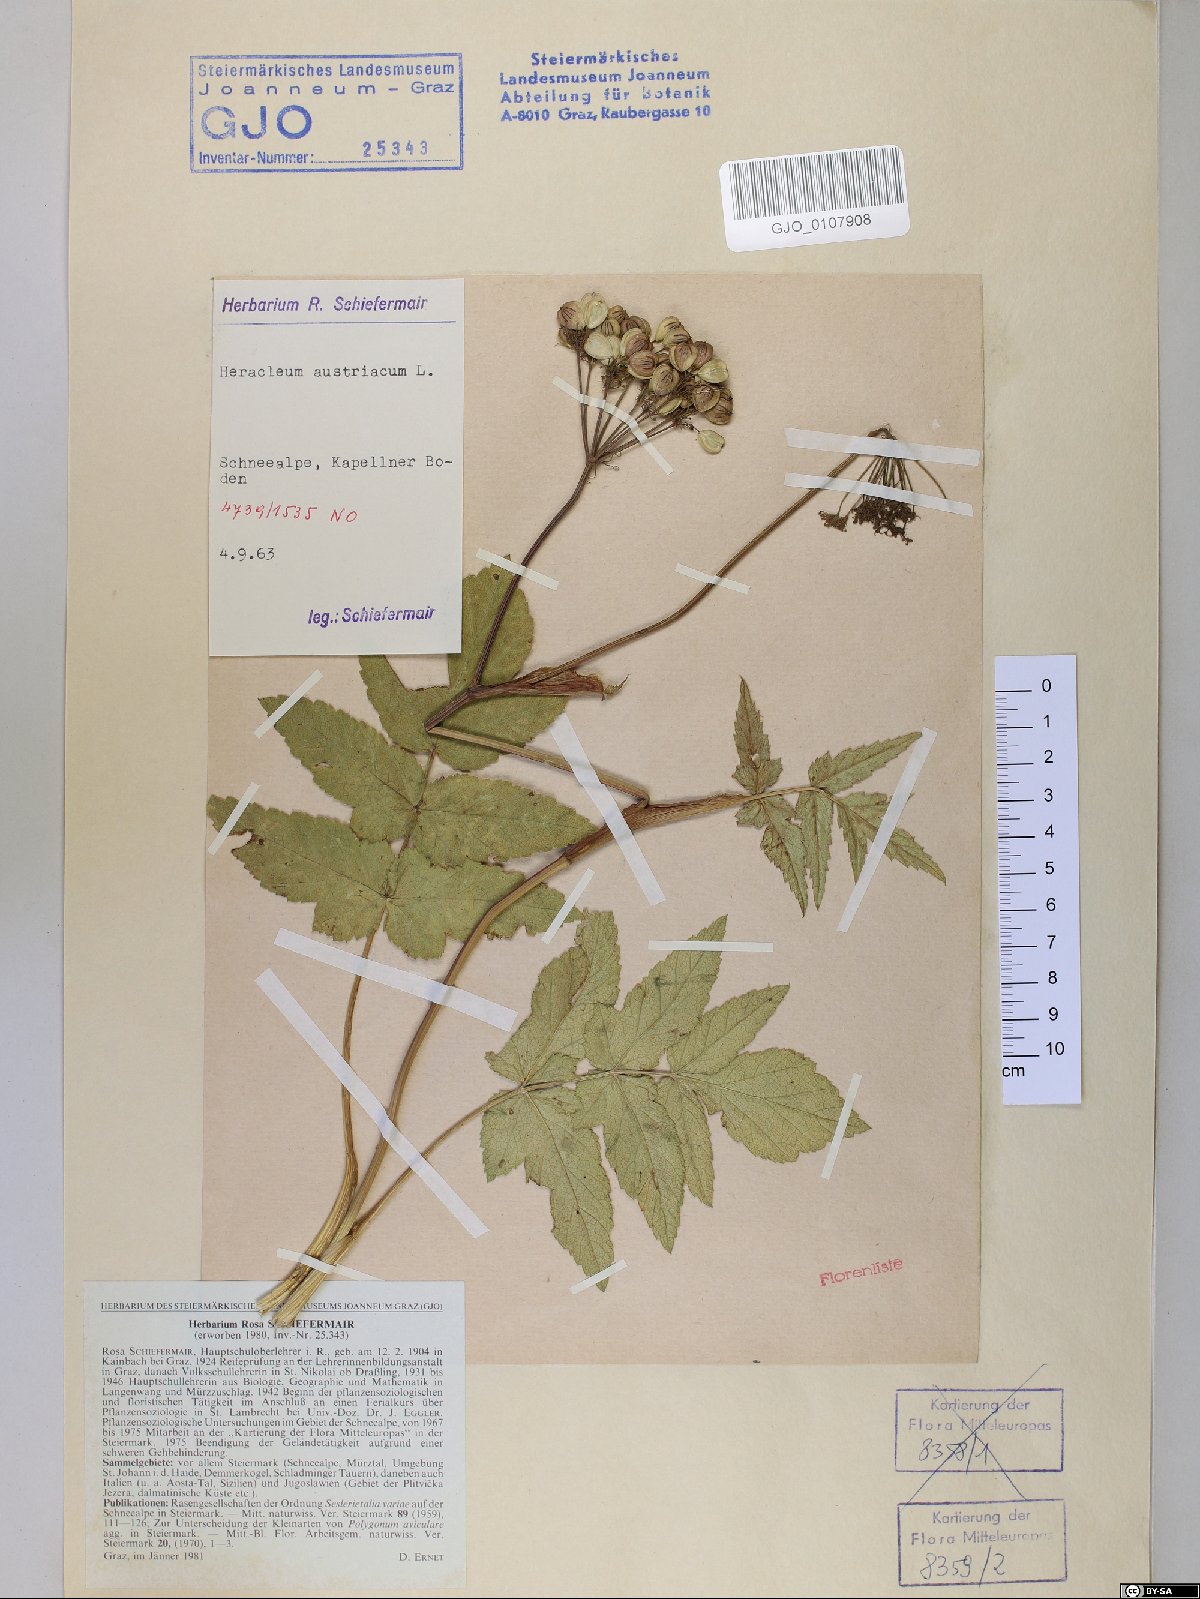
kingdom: Plantae
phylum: Tracheophyta
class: Magnoliopsida
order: Apiales
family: Apiaceae
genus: Heracleum
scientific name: Heracleum austriacum
